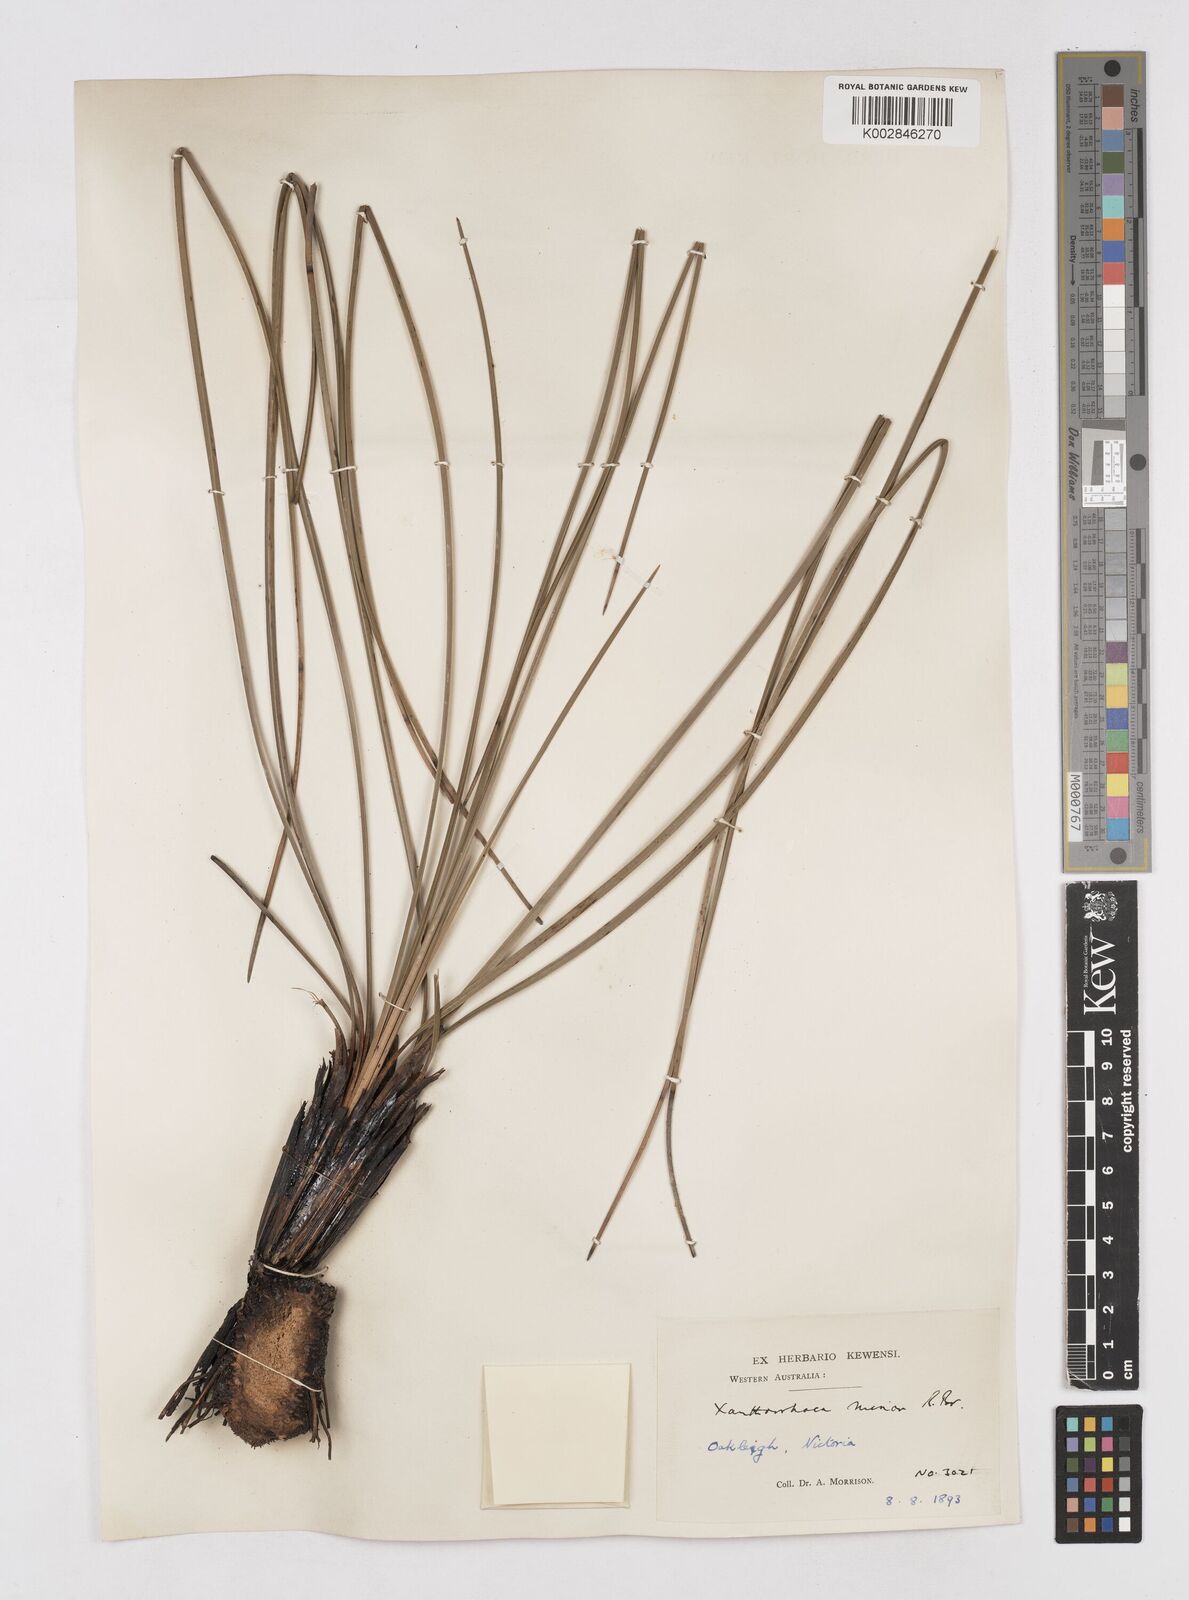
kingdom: Plantae
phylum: Tracheophyta
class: Liliopsida
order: Asparagales
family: Asphodelaceae
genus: Xanthorrhoea
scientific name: Xanthorrhoea minor
